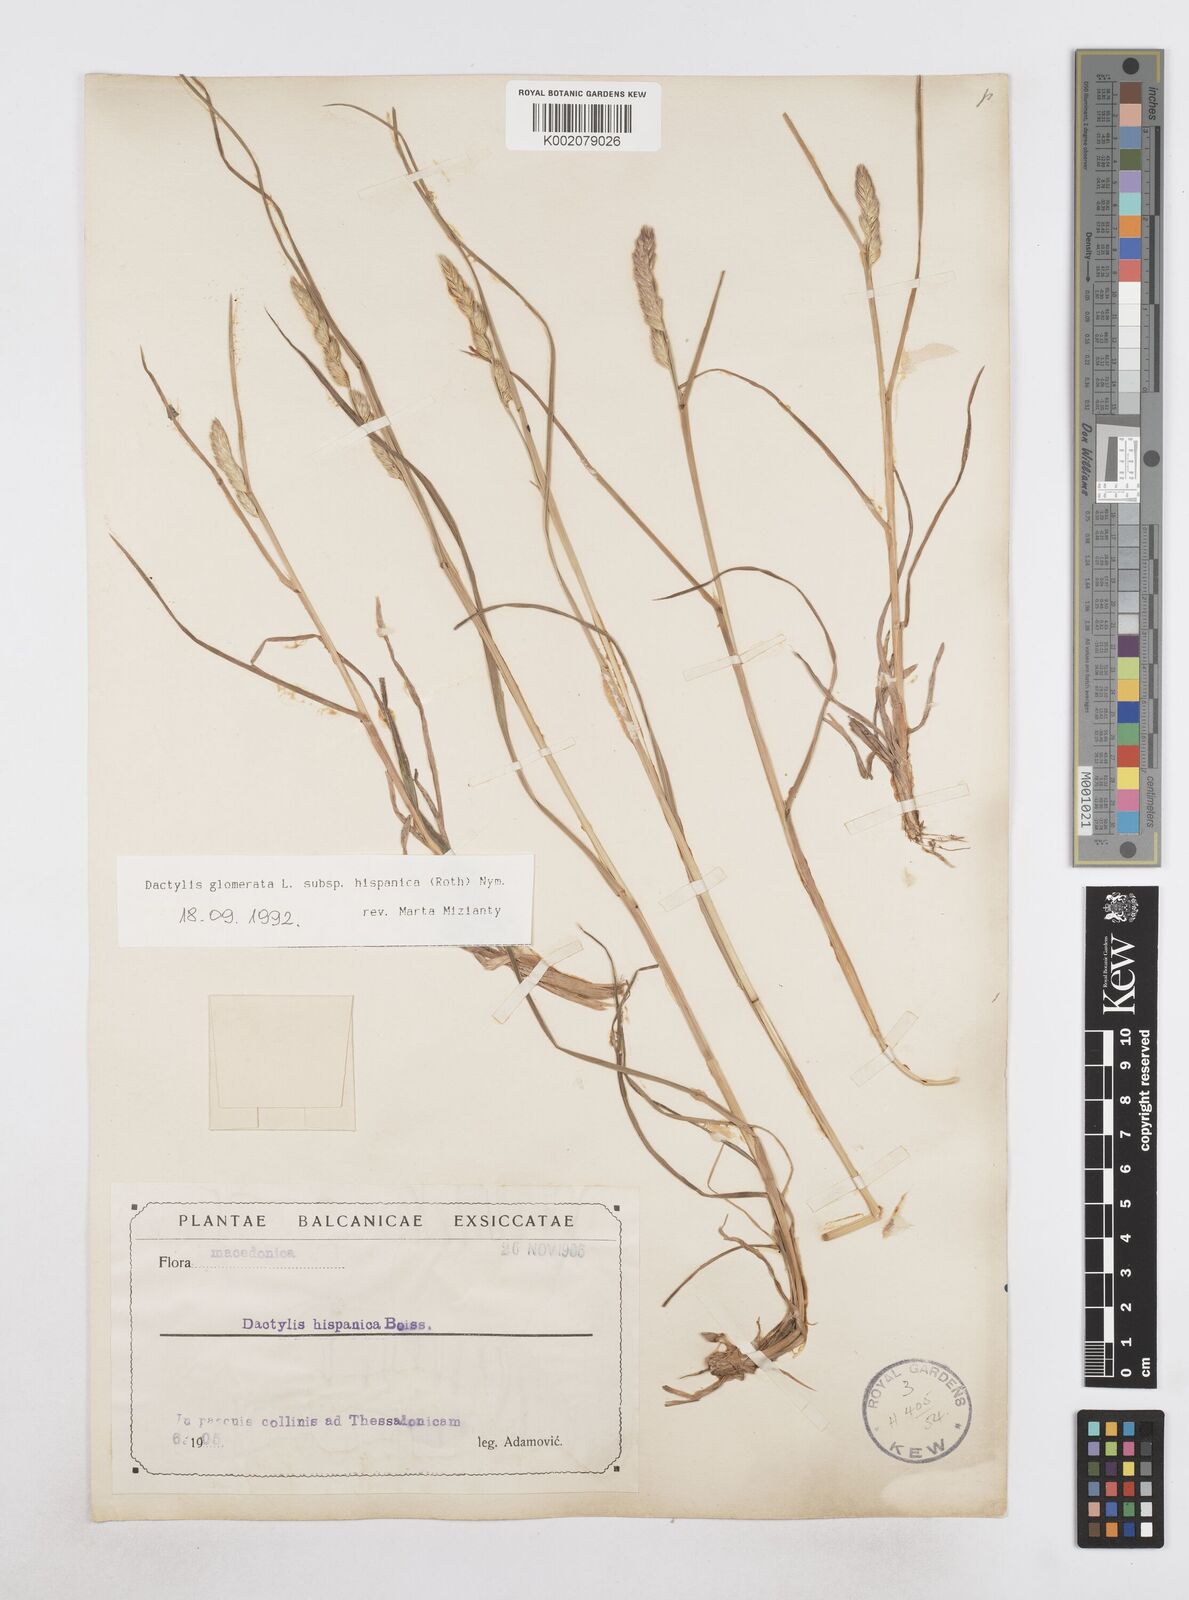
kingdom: Plantae
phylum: Tracheophyta
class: Liliopsida
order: Poales
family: Poaceae
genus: Dactylis
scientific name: Dactylis glomerata
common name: Orchardgrass
